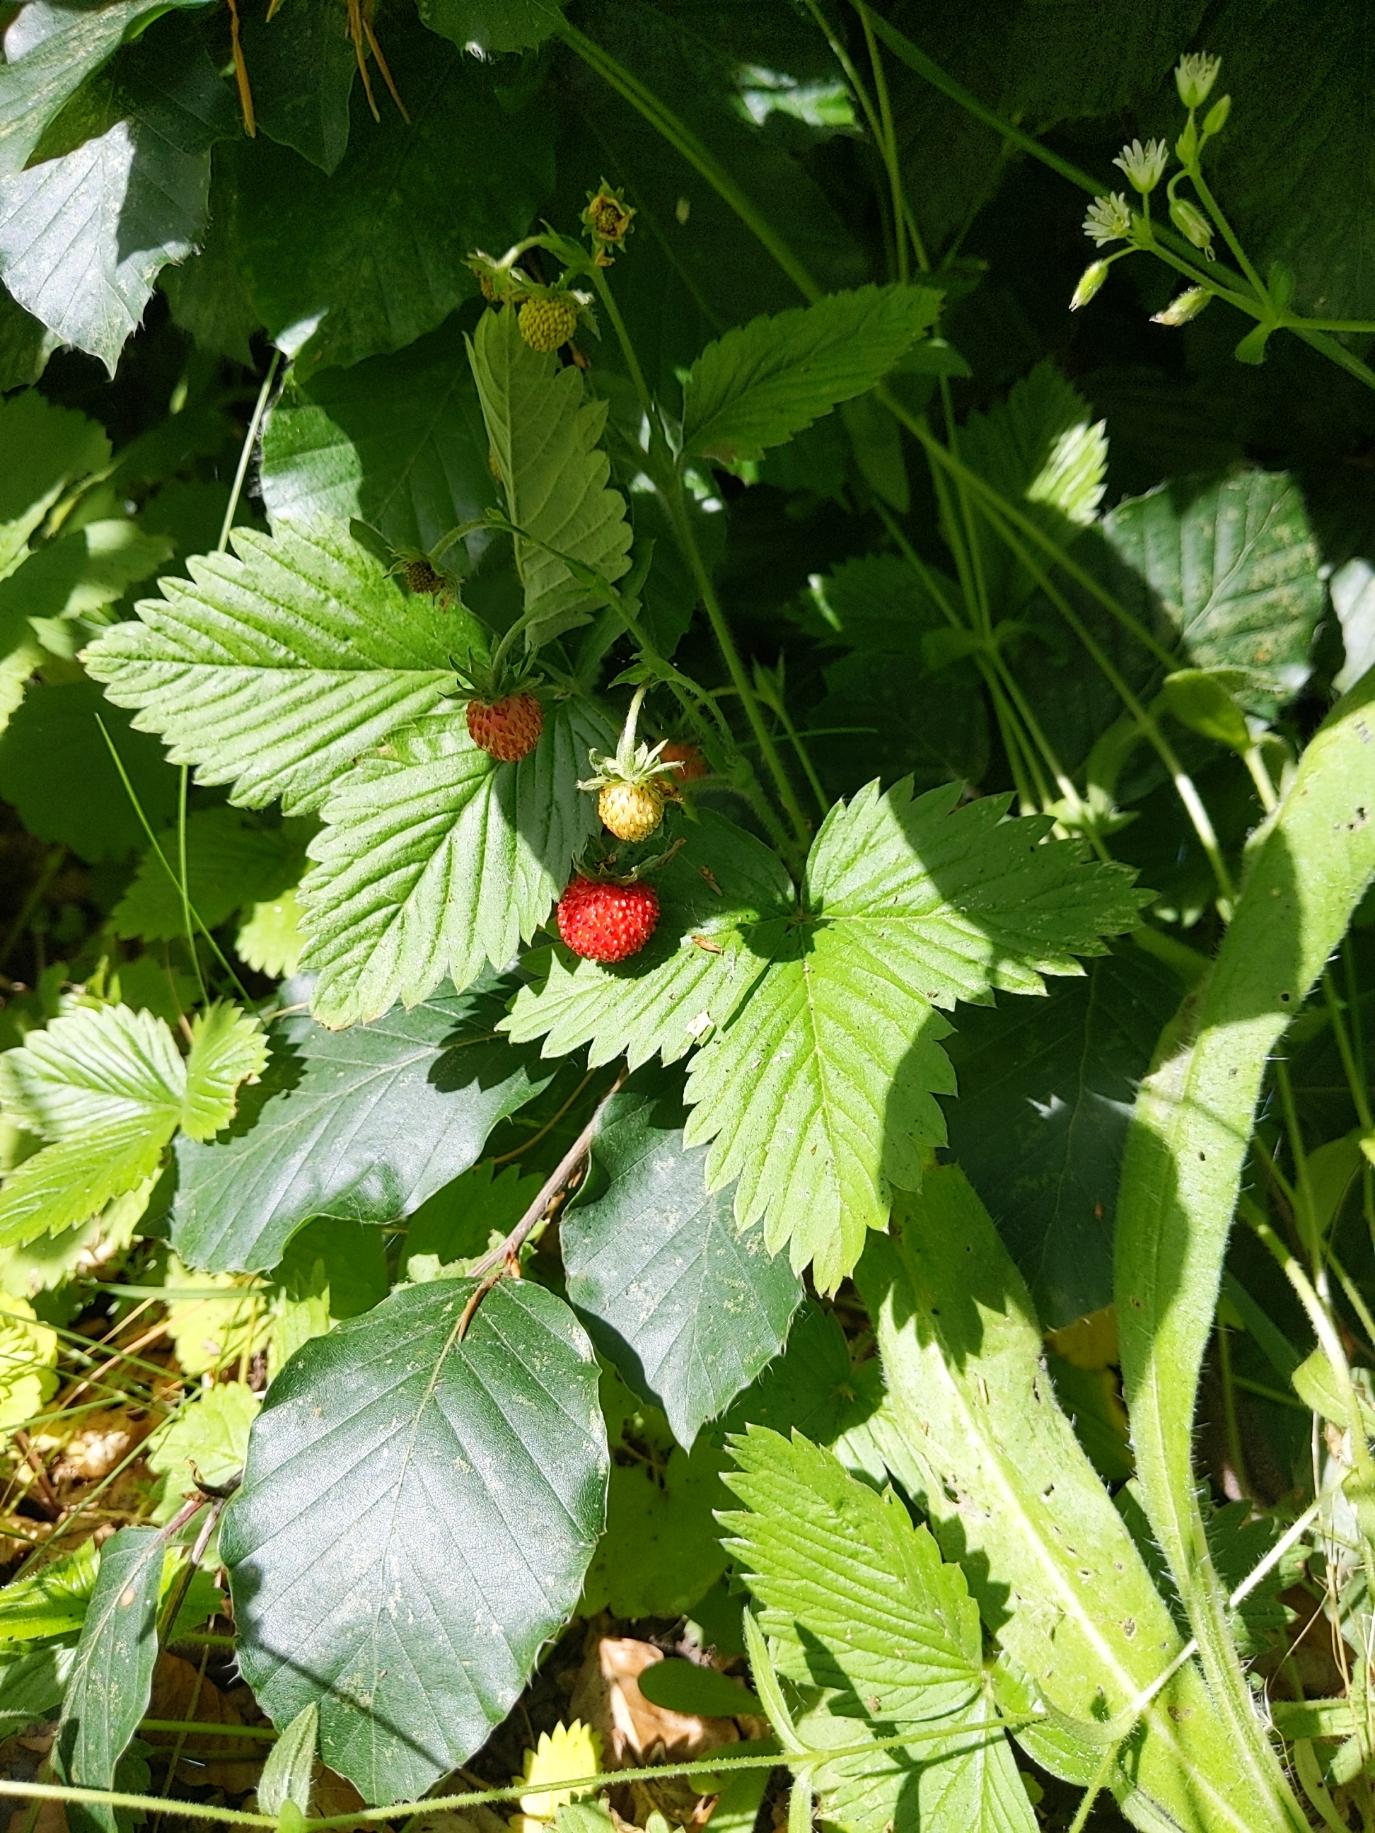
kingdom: Plantae
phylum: Tracheophyta
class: Magnoliopsida
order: Rosales
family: Rosaceae
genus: Fragaria
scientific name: Fragaria vesca
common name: Skov-jordbær
